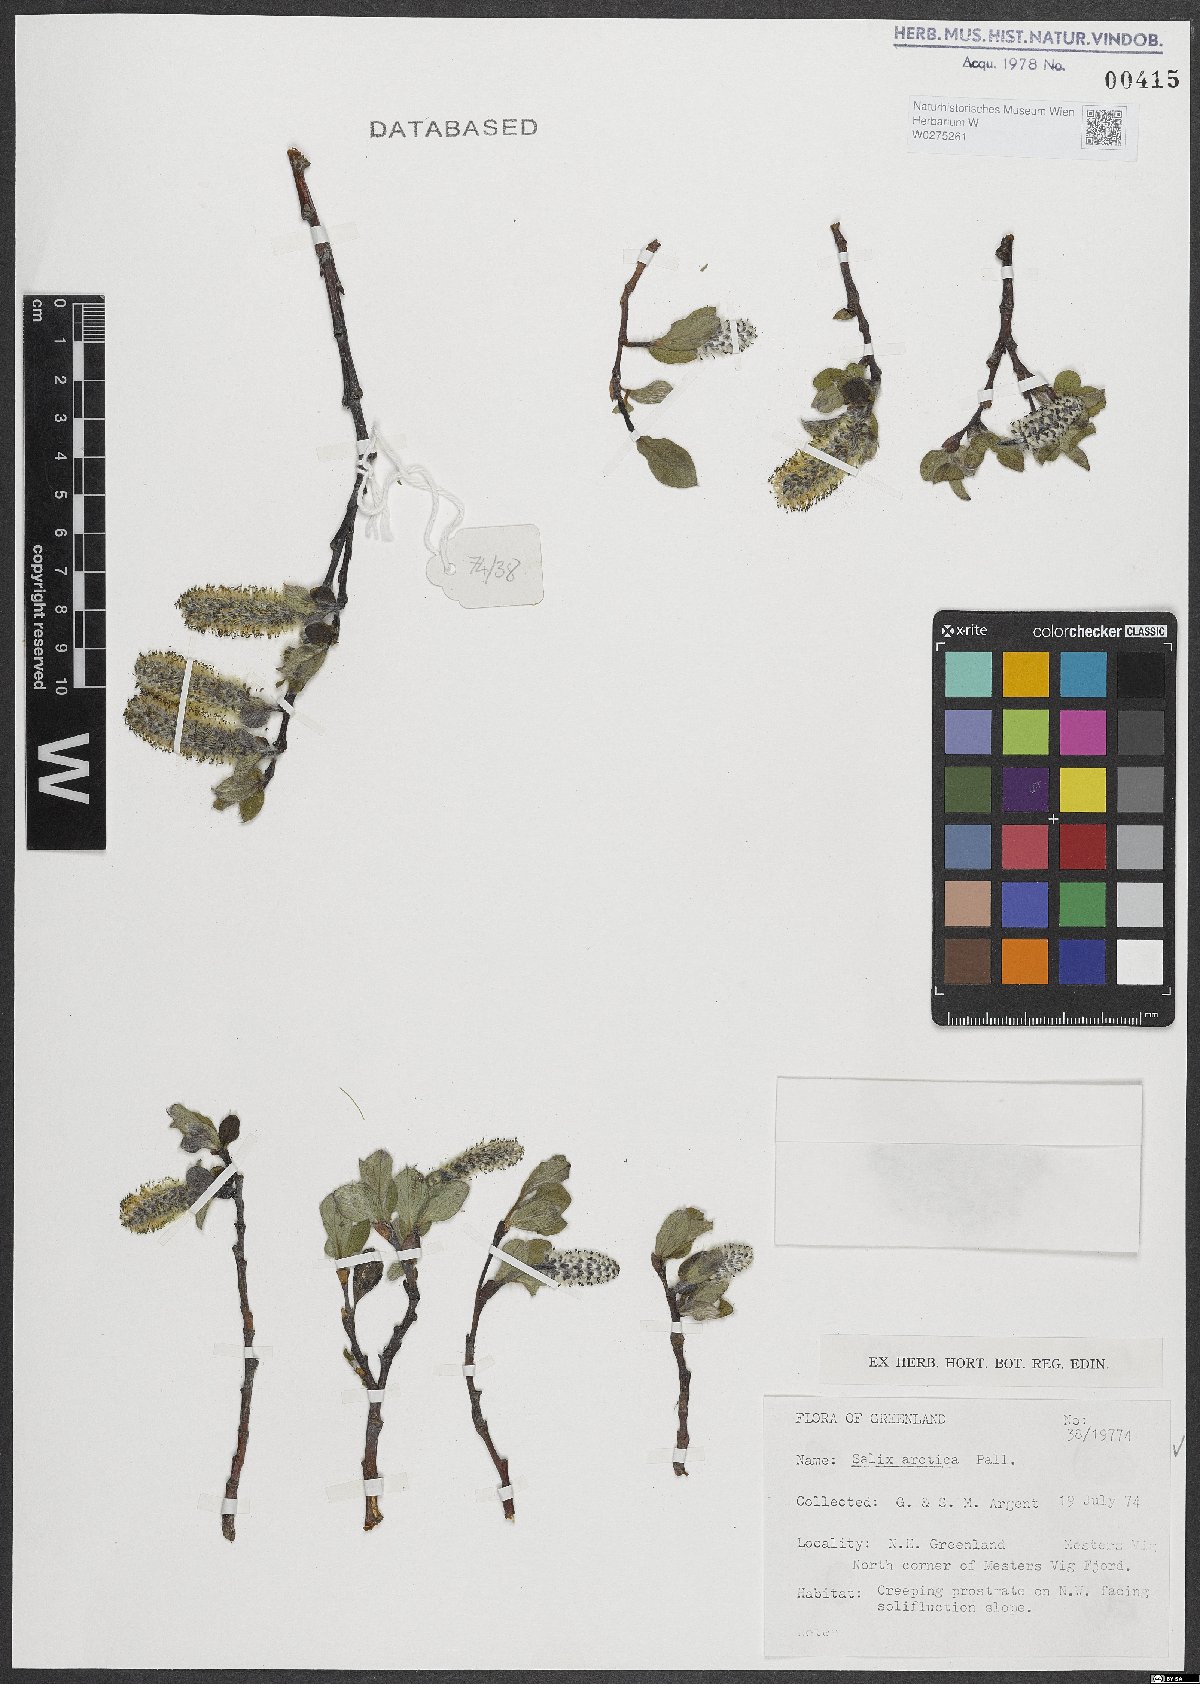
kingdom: Plantae
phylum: Tracheophyta
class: Magnoliopsida
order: Malpighiales
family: Salicaceae
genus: Salix
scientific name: Salix arctica
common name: Arctic willow
